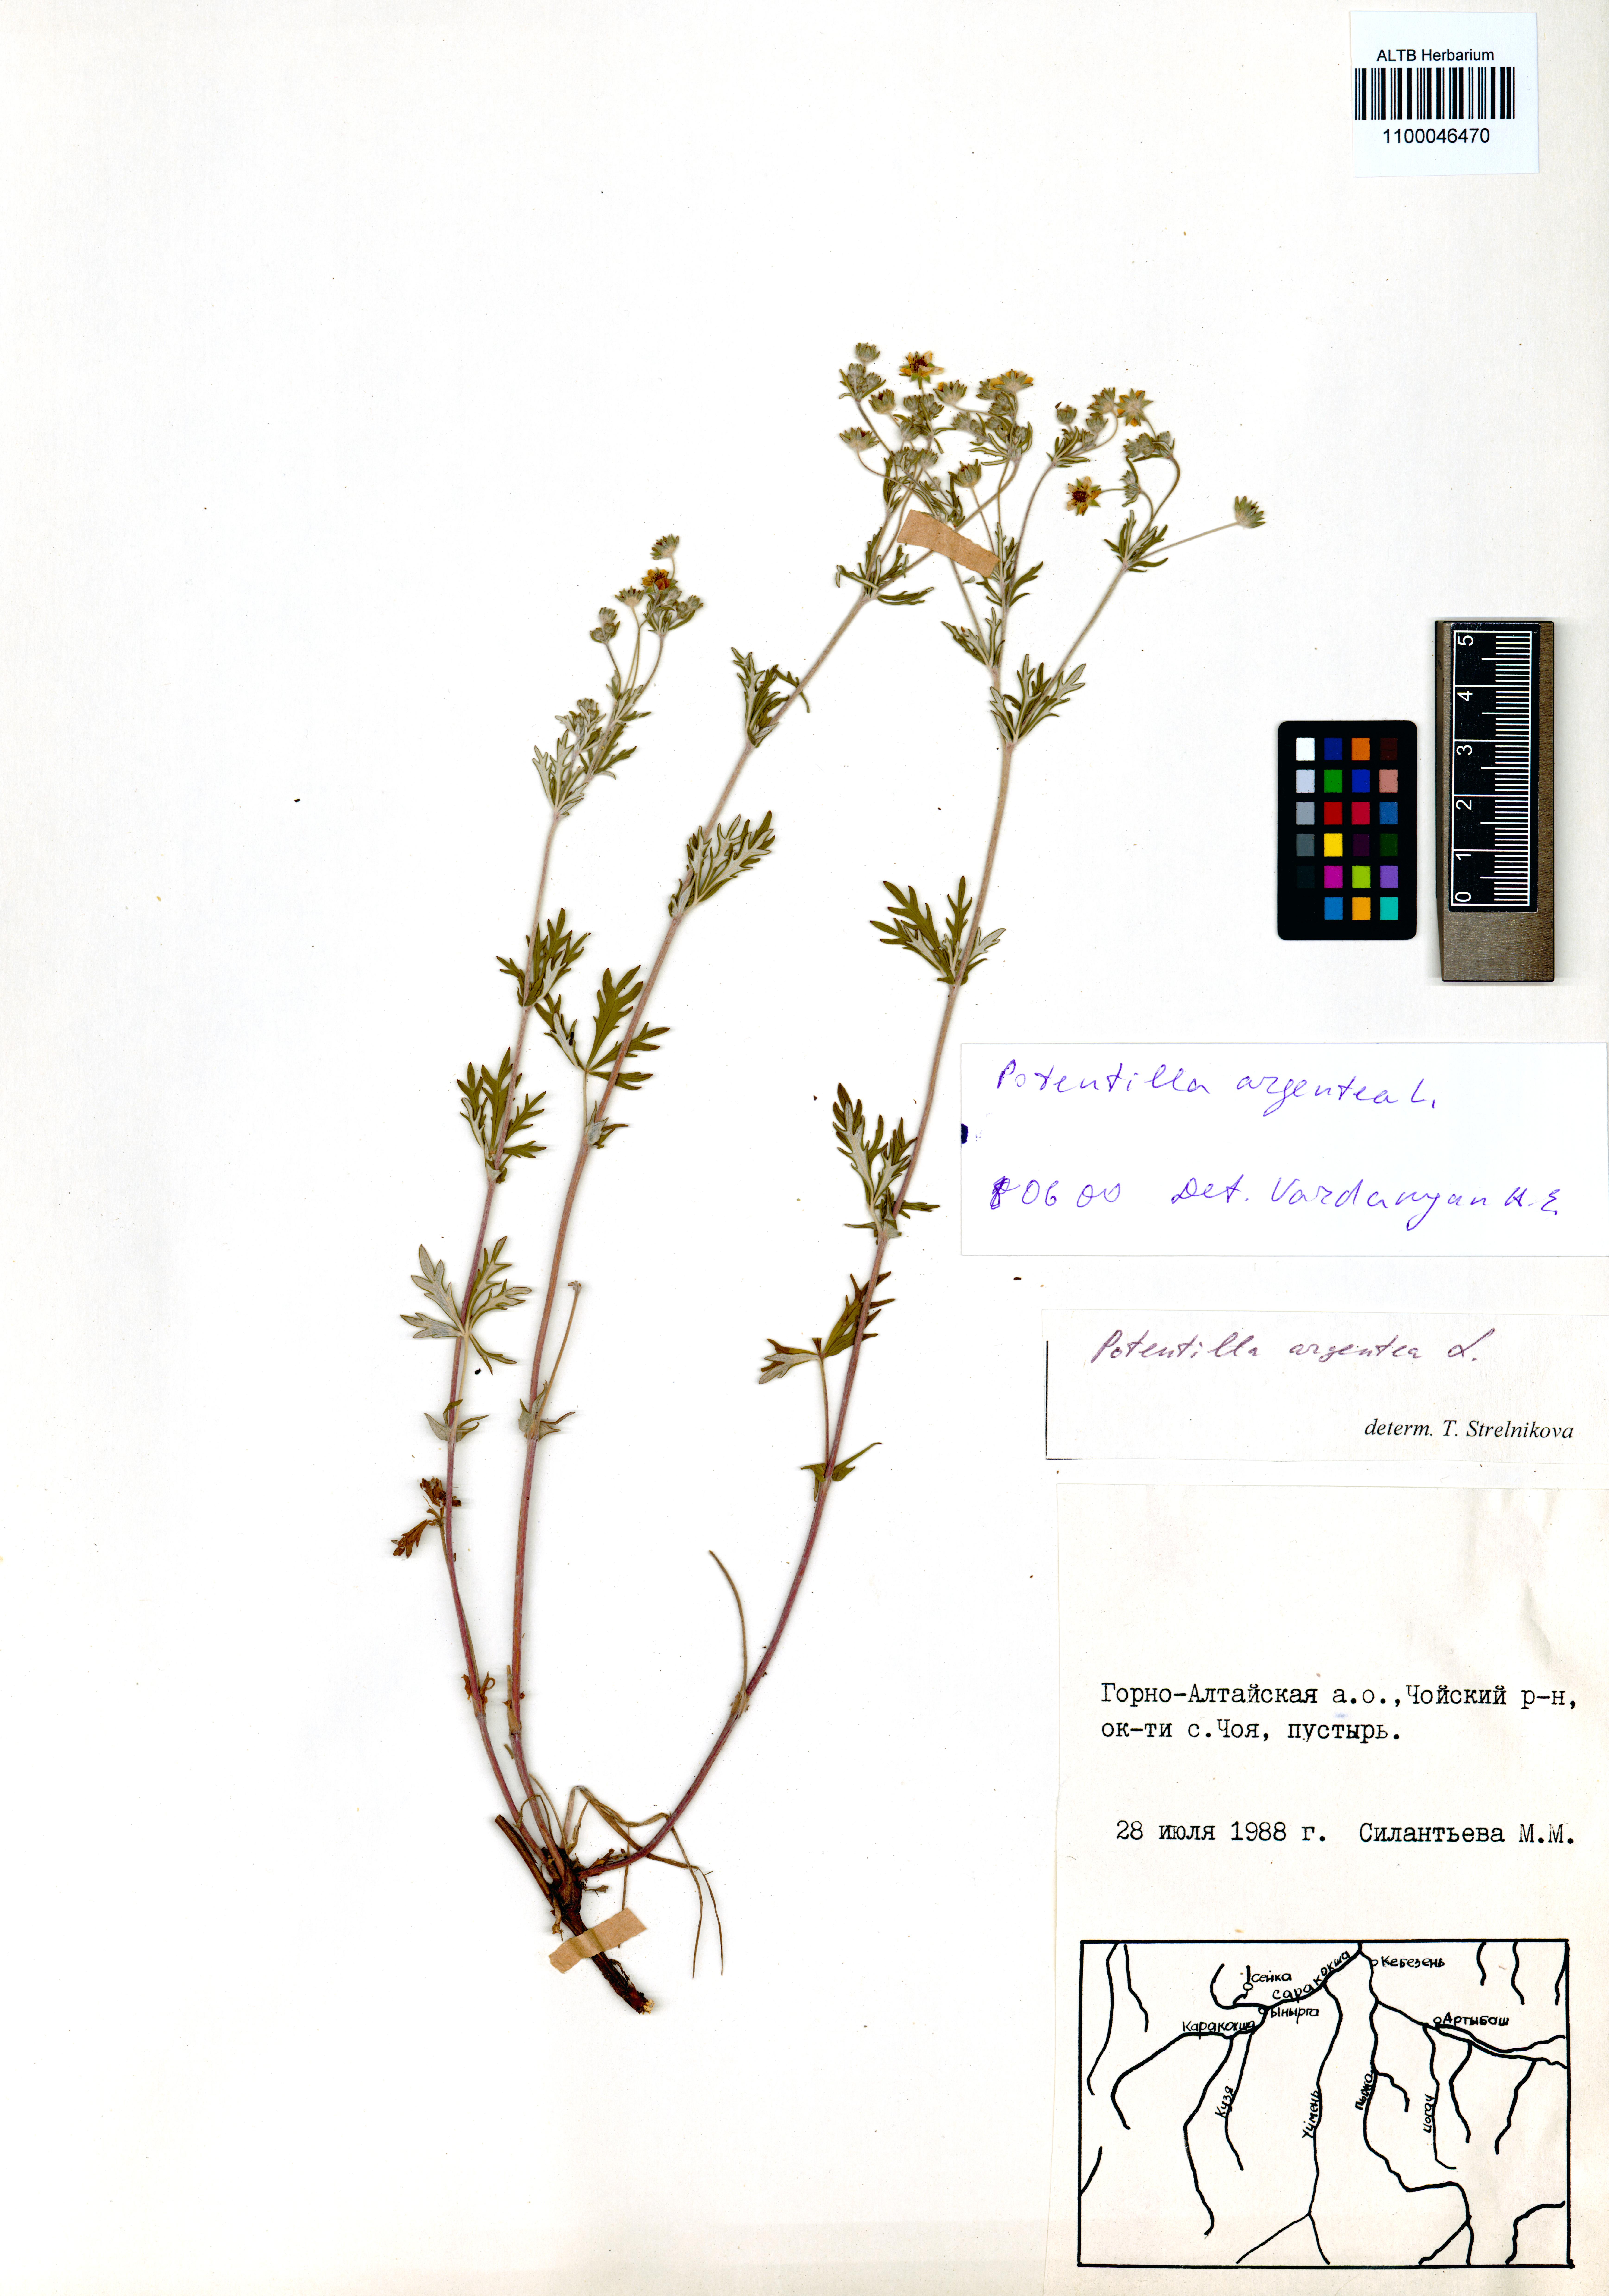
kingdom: Plantae
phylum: Tracheophyta
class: Magnoliopsida
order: Rosales
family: Rosaceae
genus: Potentilla
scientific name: Potentilla argentea
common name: Hoary cinquefoil
